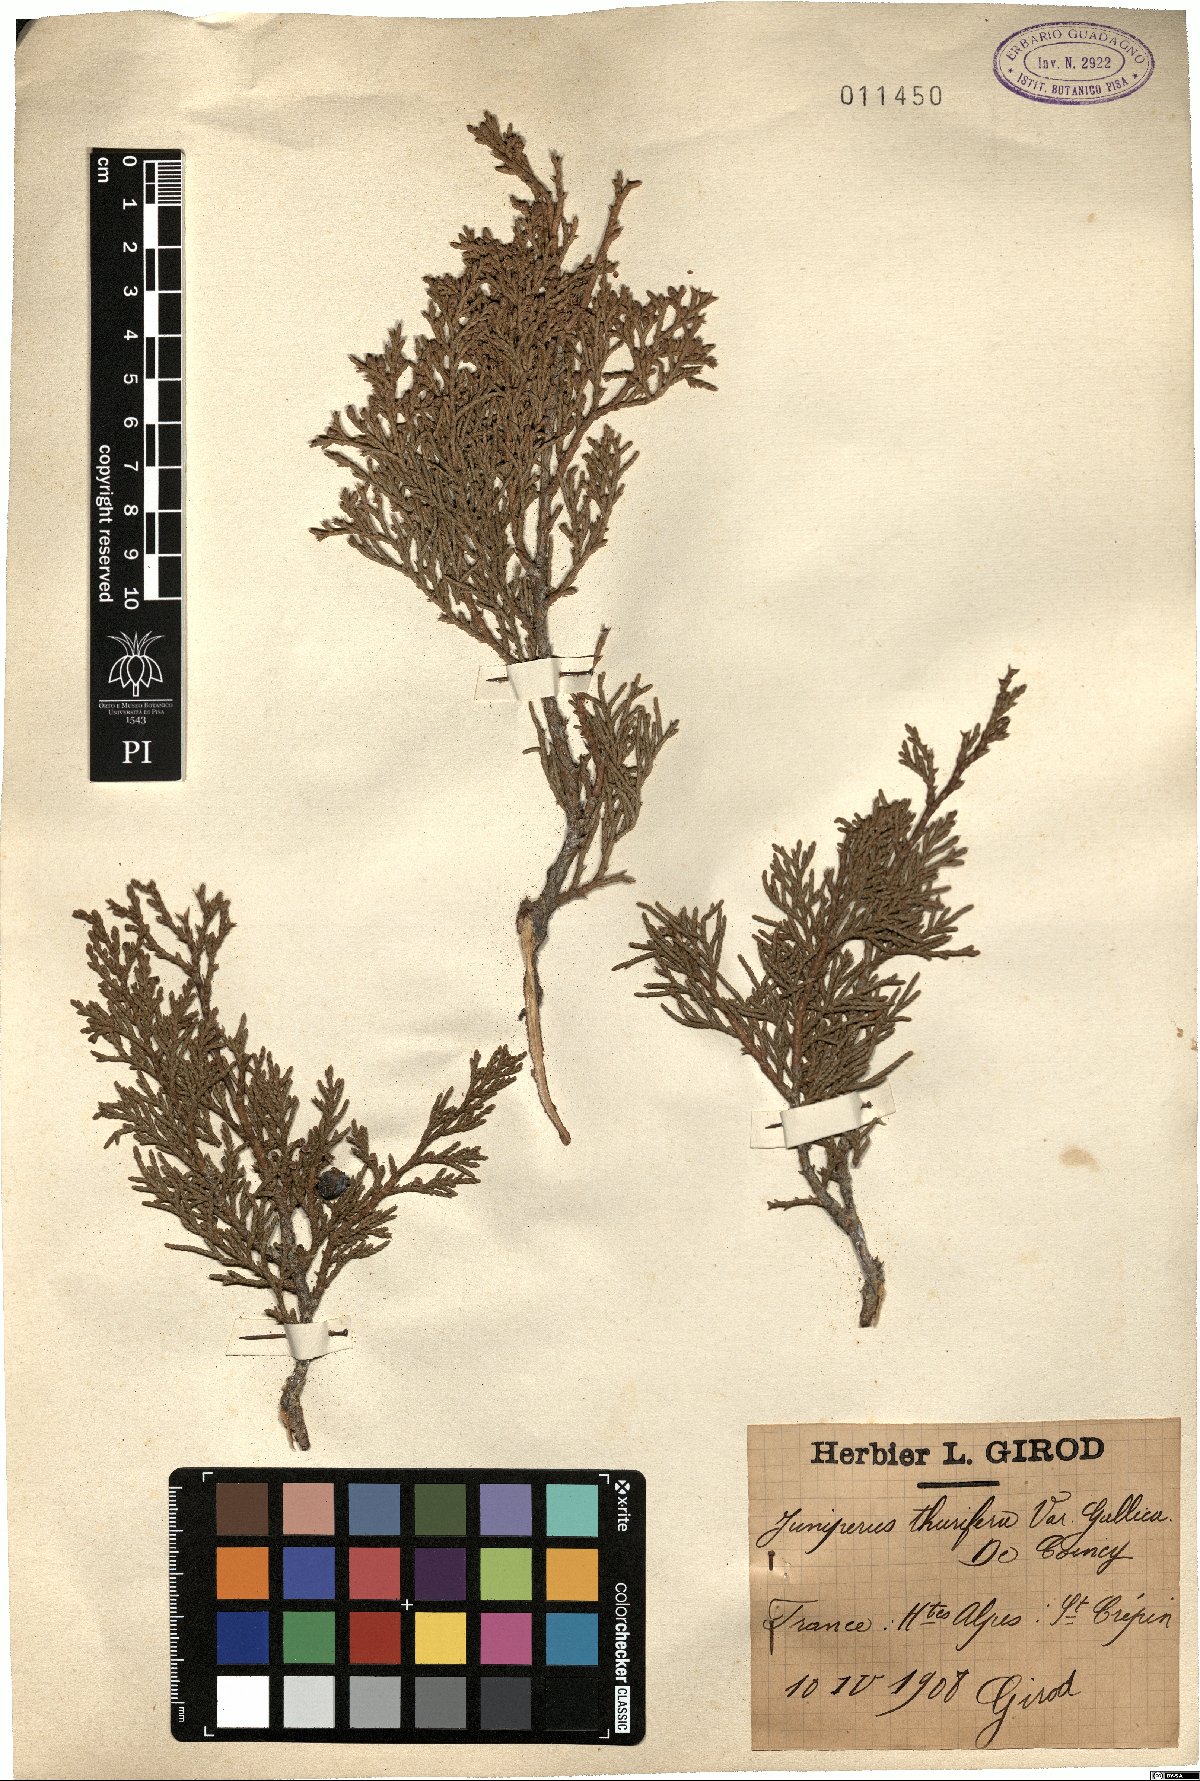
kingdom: Plantae
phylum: Tracheophyta
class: Pinopsida
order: Pinales
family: Cupressaceae
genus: Juniperus
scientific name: Juniperus thurifera
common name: Incense juniper
